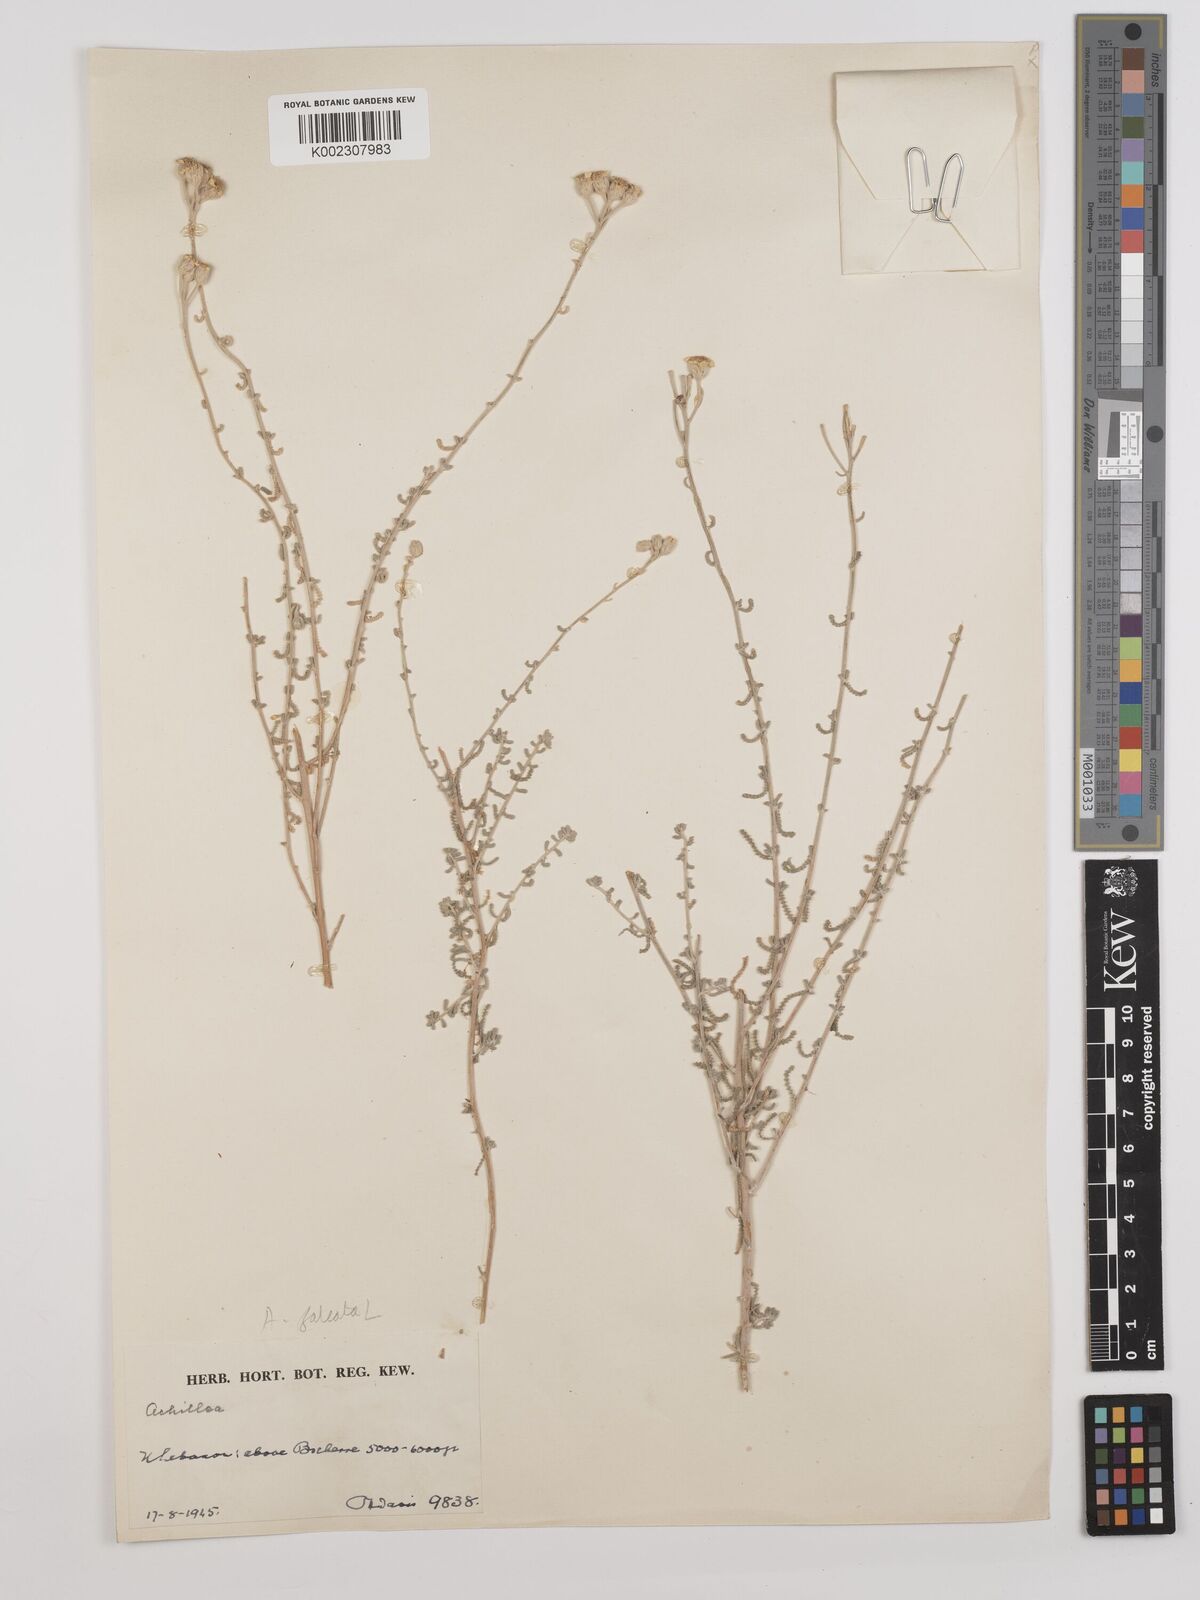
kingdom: Plantae
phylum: Tracheophyta
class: Magnoliopsida
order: Asterales
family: Asteraceae
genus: Achillea
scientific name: Achillea falcata
